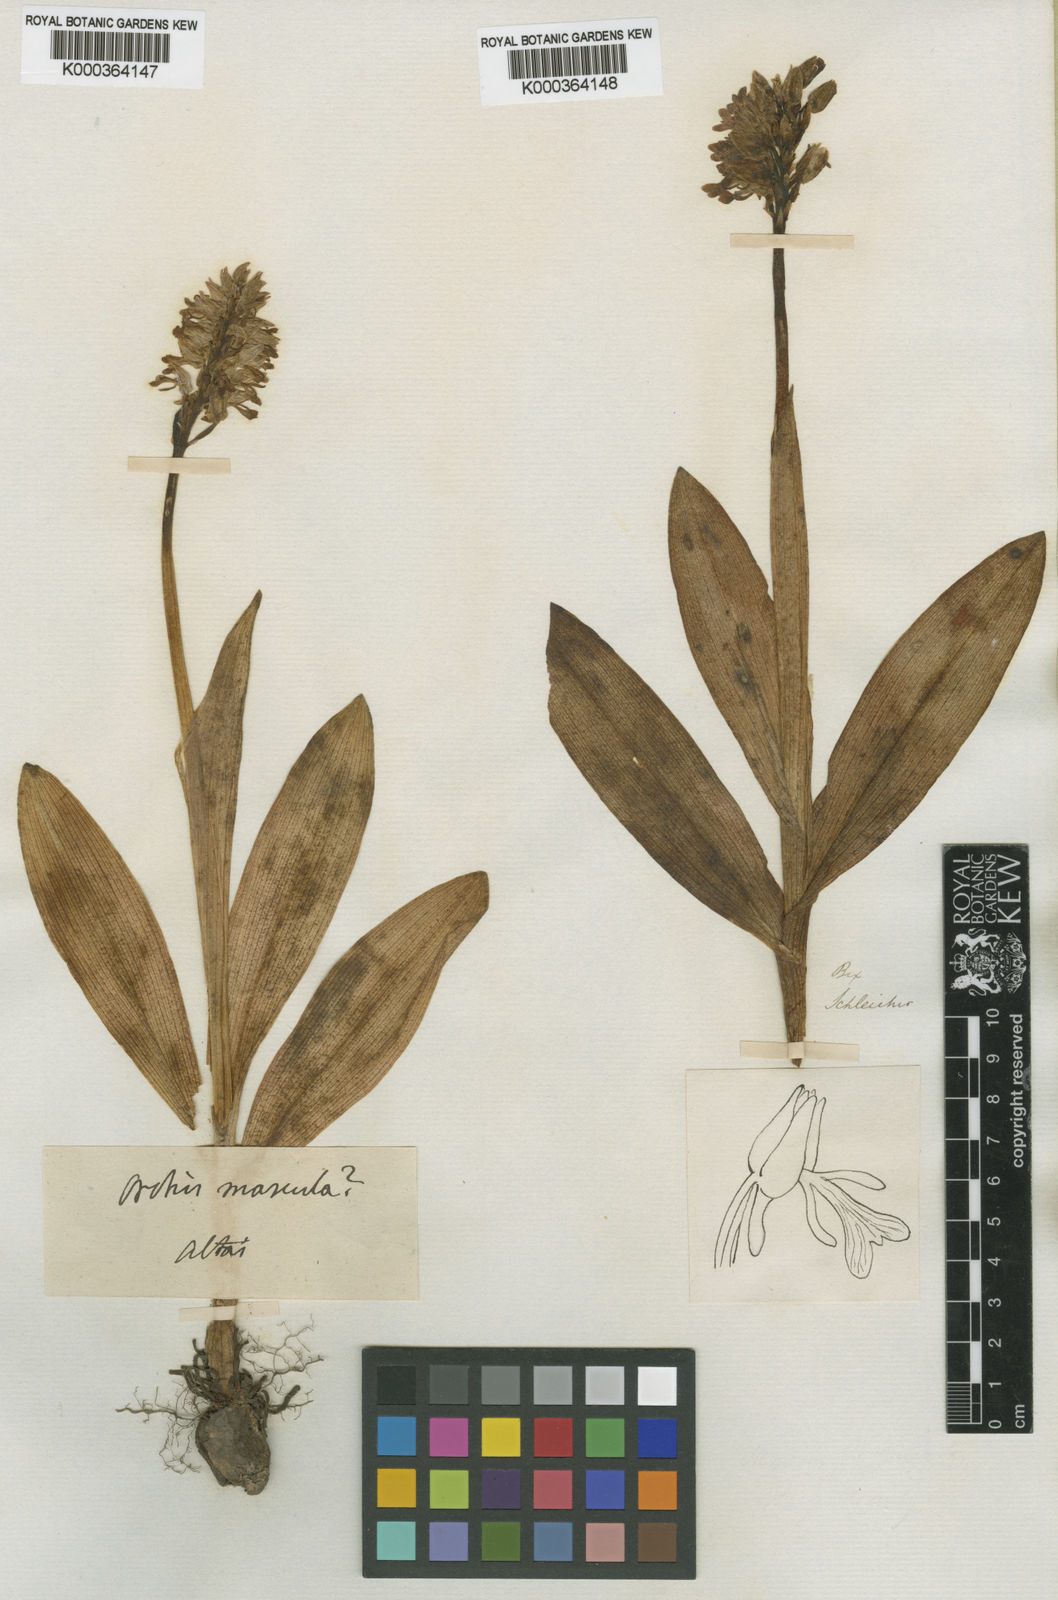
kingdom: Plantae
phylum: Tracheophyta
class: Liliopsida
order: Asparagales
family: Orchidaceae
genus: Orchis
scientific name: Orchis militaris
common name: Military orchid
